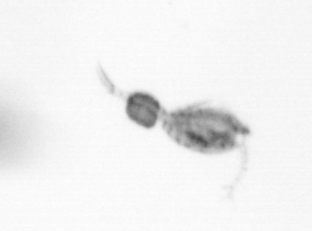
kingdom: Animalia
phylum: Arthropoda
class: Copepoda
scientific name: Copepoda
